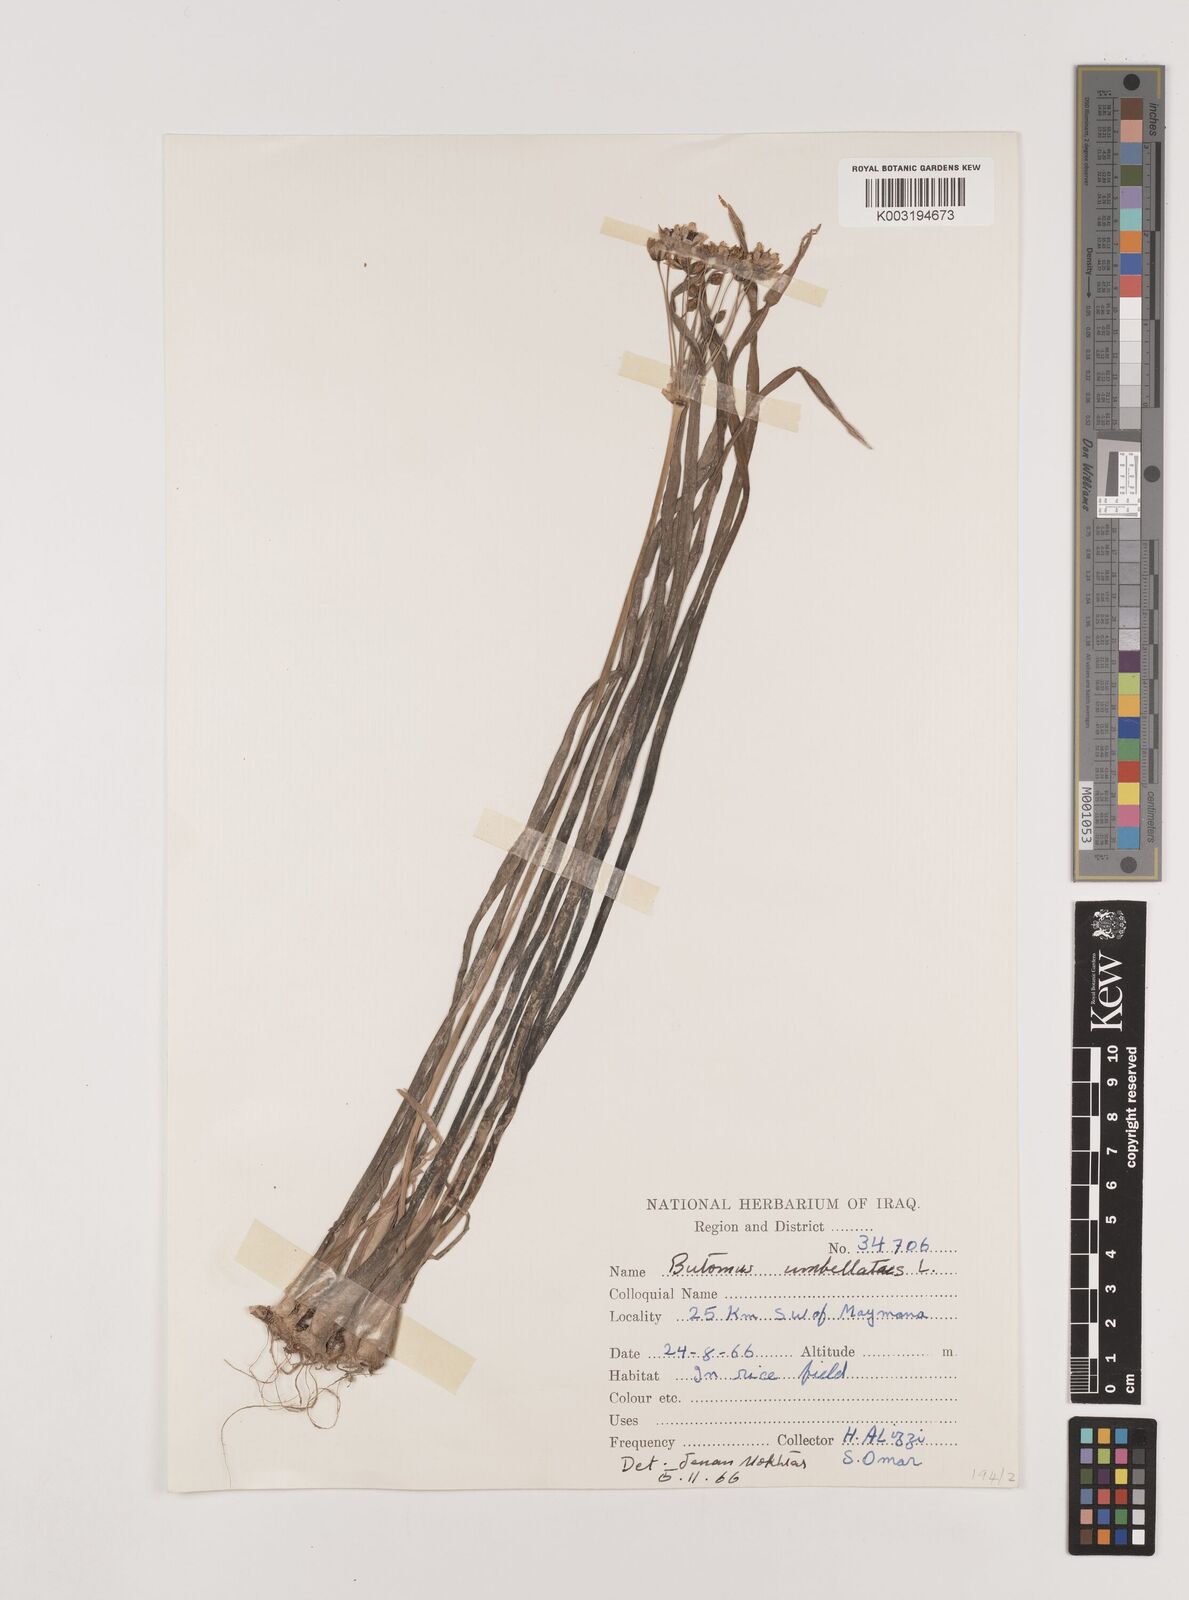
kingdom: Plantae
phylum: Tracheophyta
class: Liliopsida
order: Alismatales
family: Butomaceae
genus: Butomus
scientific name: Butomus
